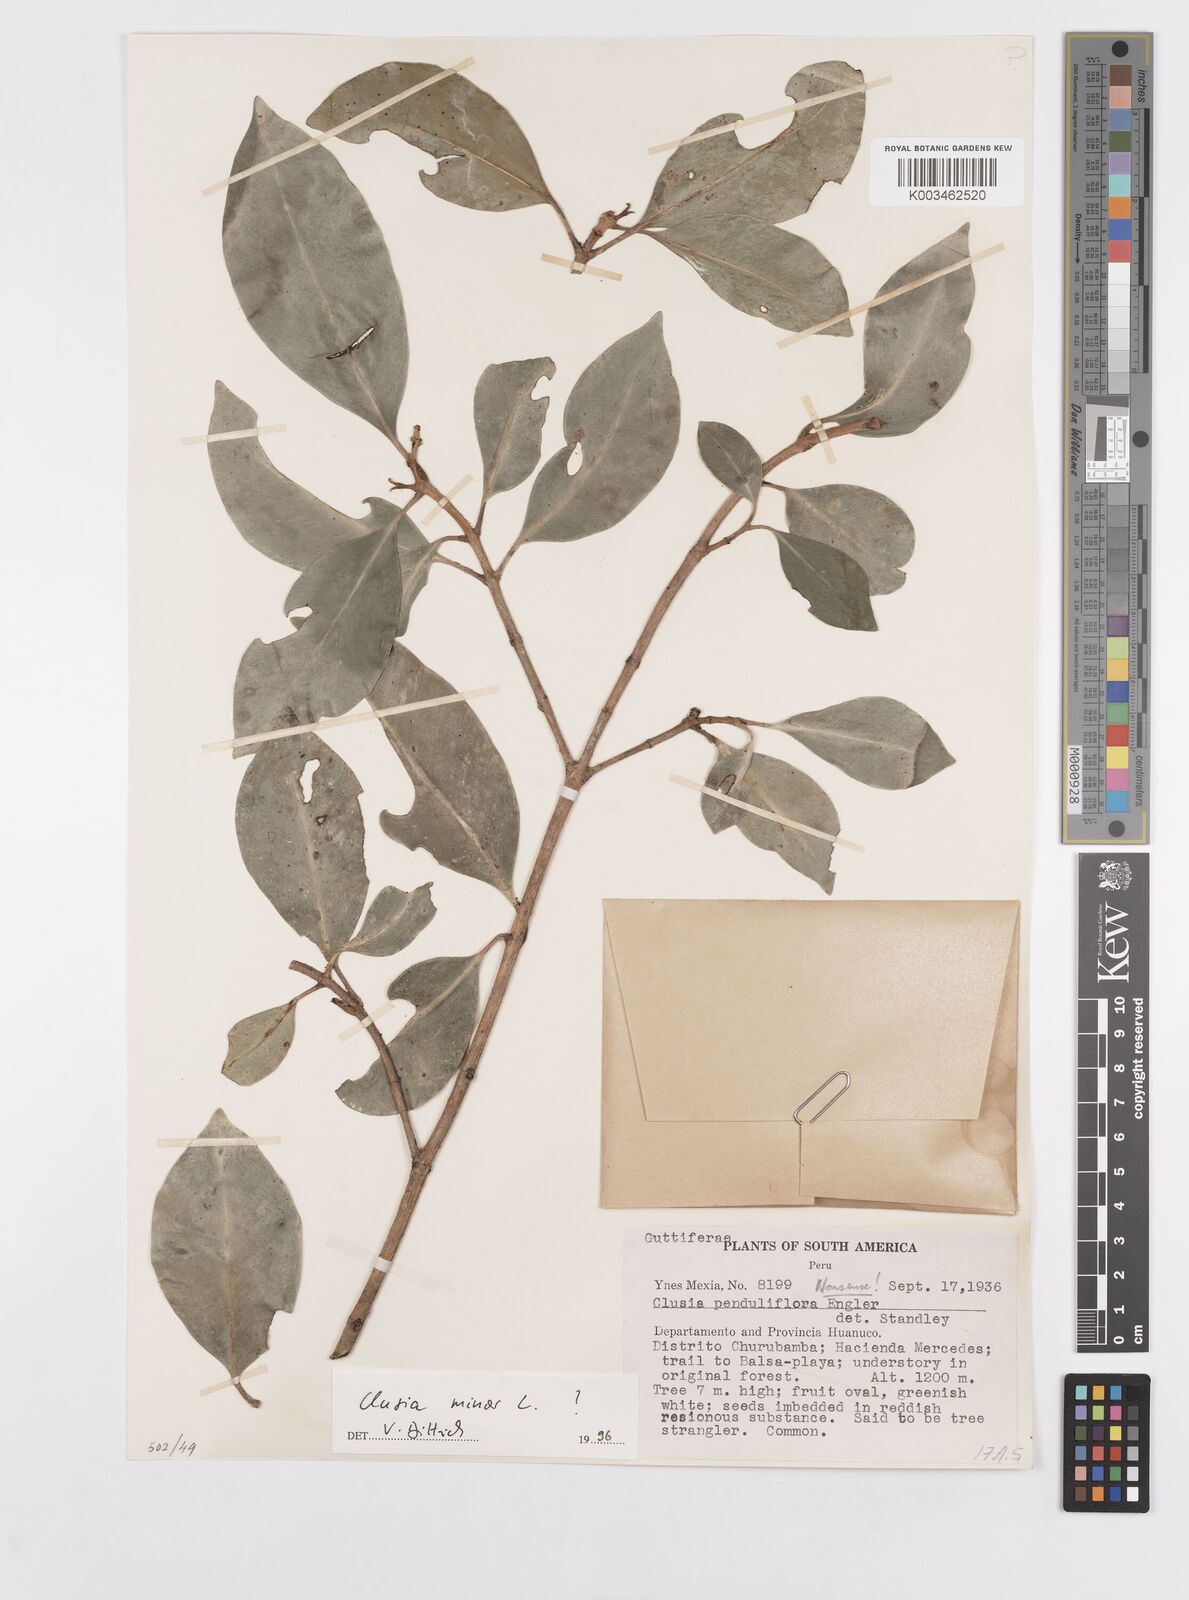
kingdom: Plantae
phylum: Tracheophyta
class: Magnoliopsida
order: Malpighiales
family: Clusiaceae
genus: Clusia
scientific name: Clusia minor
